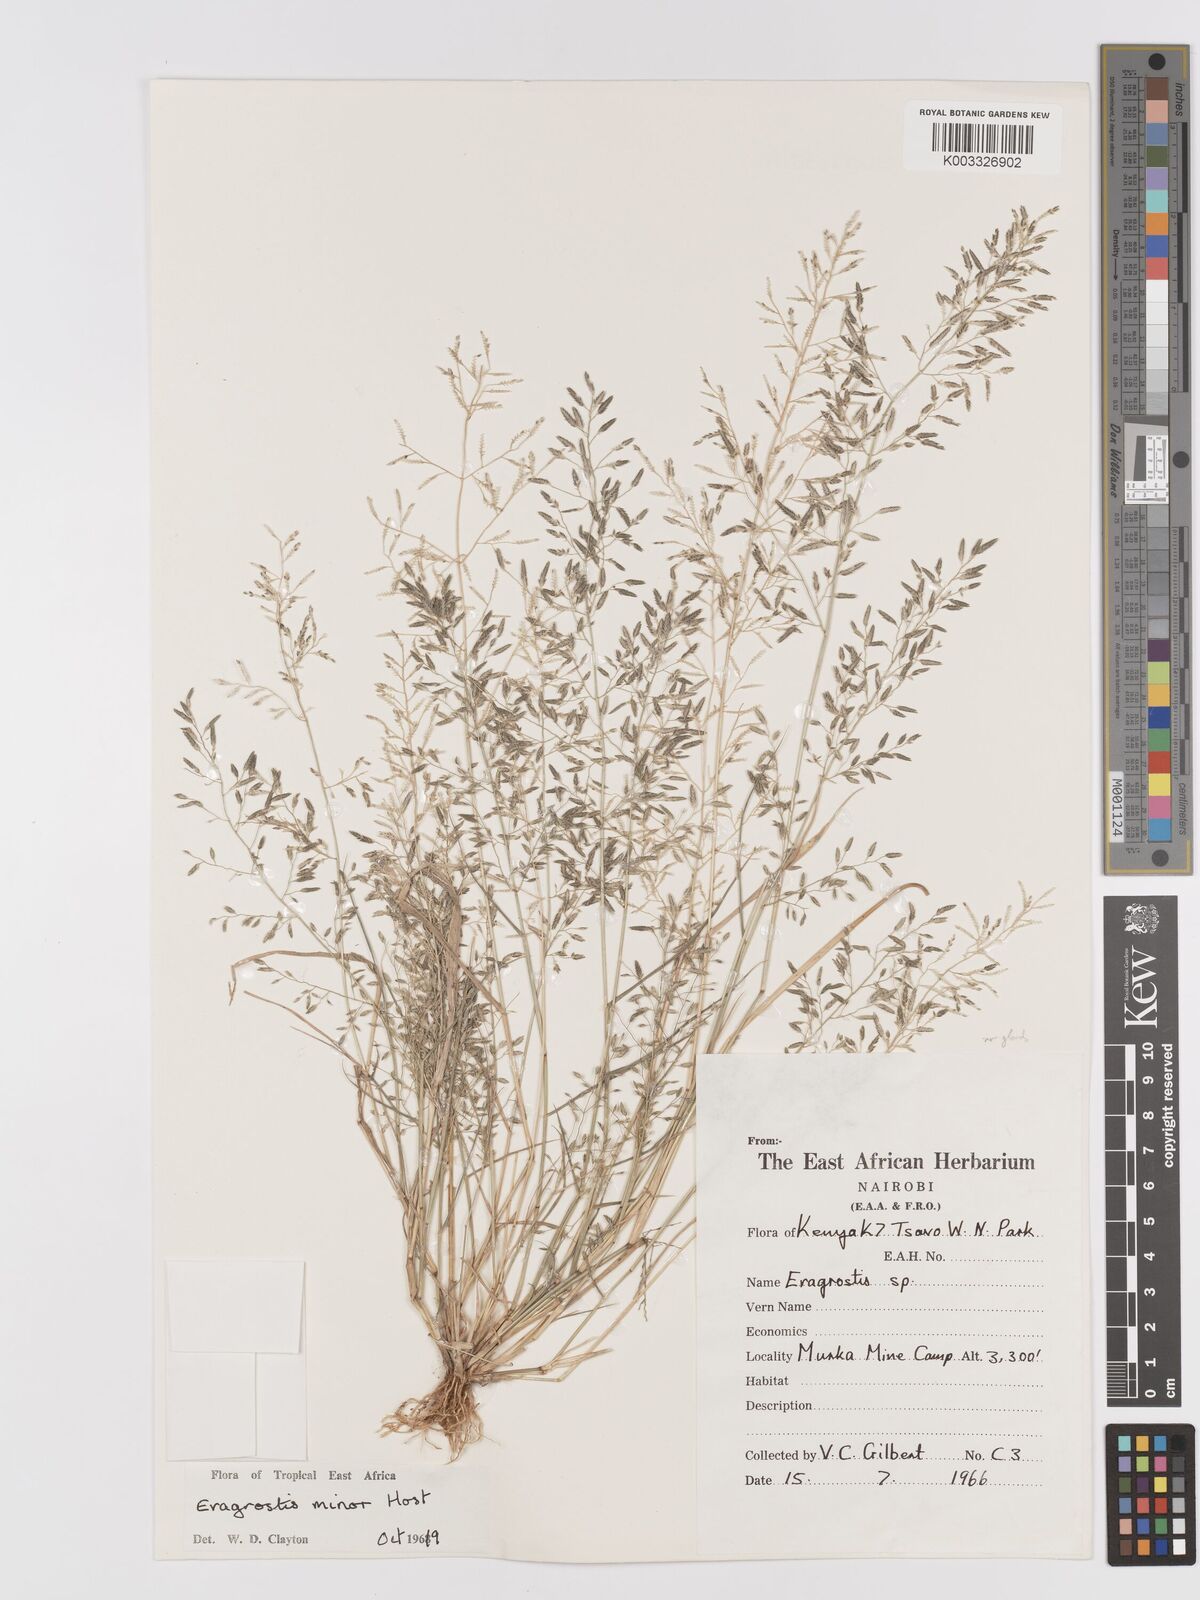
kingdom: Plantae
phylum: Tracheophyta
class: Liliopsida
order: Poales
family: Poaceae
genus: Eragrostis
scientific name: Eragrostis minor
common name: Small love-grass
